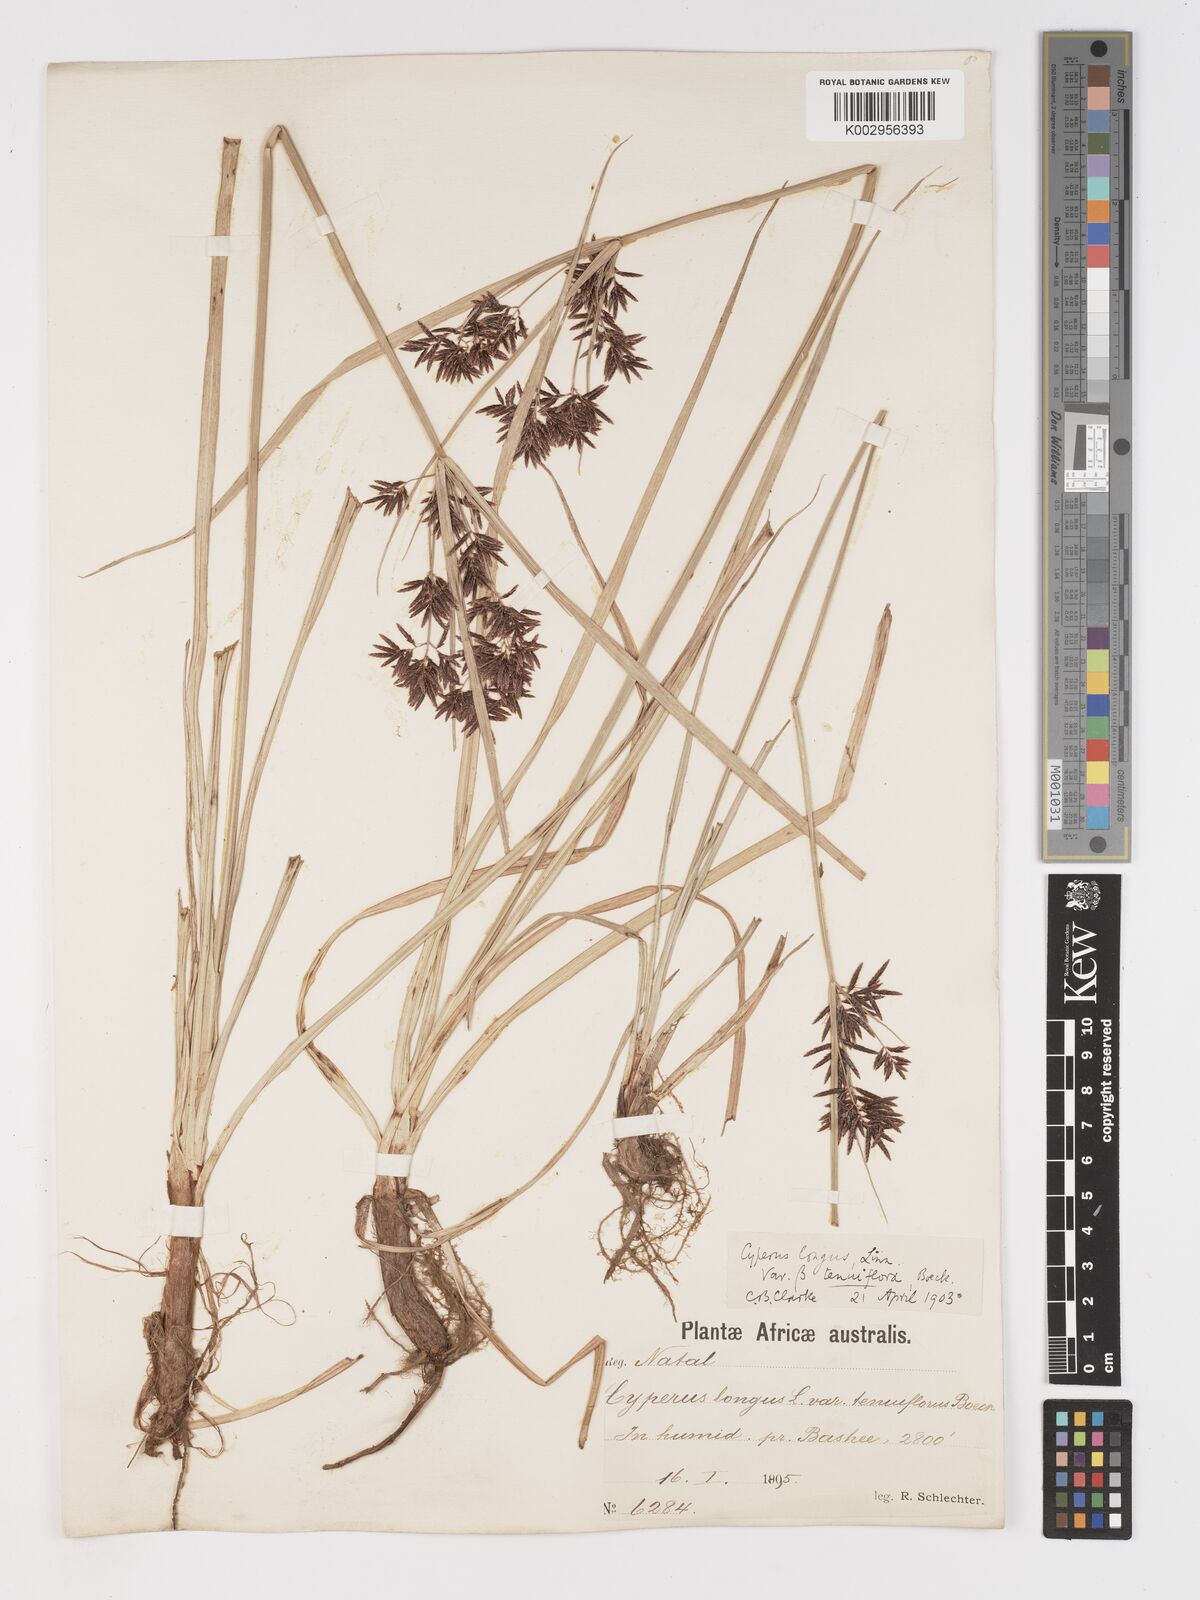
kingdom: Plantae
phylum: Tracheophyta
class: Liliopsida
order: Poales
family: Cyperaceae
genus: Cyperus
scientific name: Cyperus longus
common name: Galingale
